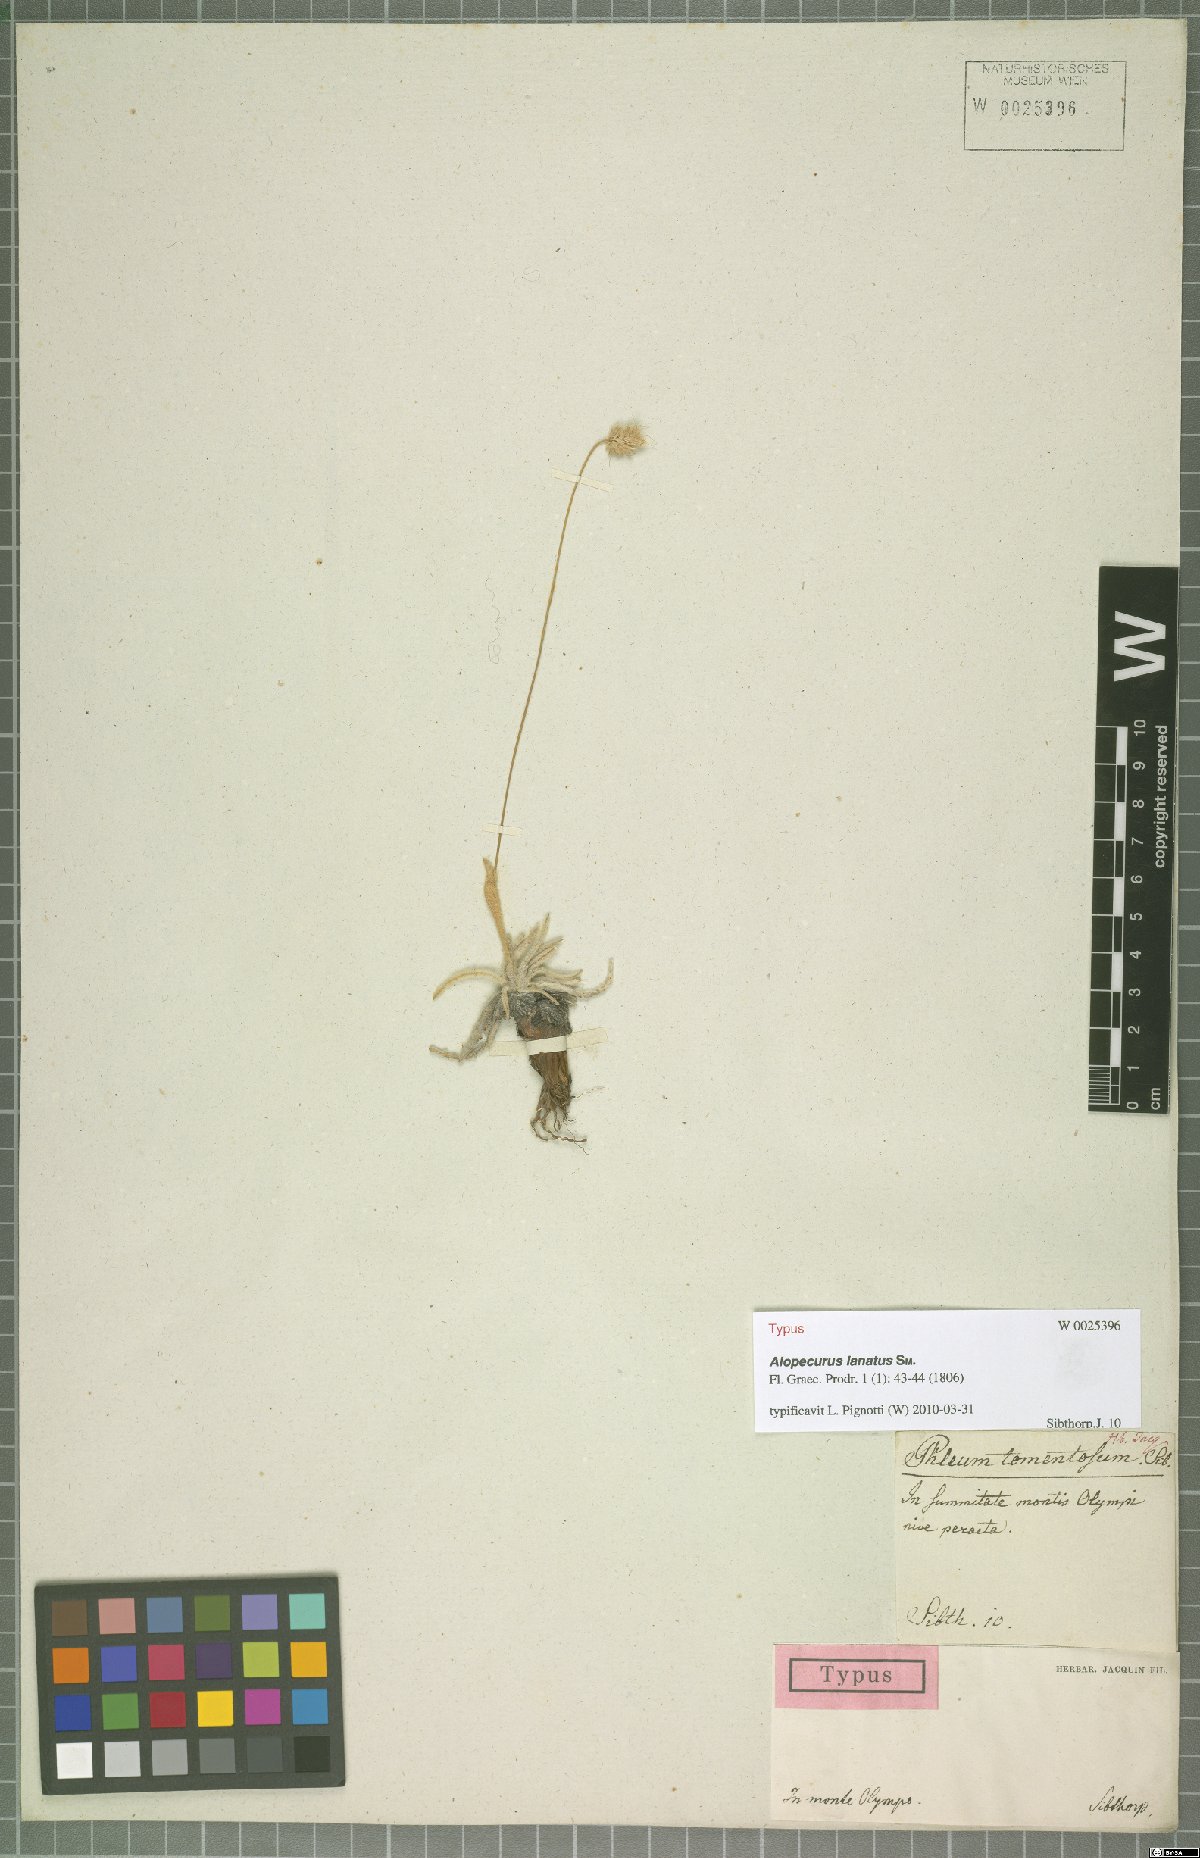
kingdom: Plantae
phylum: Tracheophyta
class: Liliopsida
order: Poales
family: Poaceae
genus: Alopecurus
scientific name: Alopecurus lanatus
